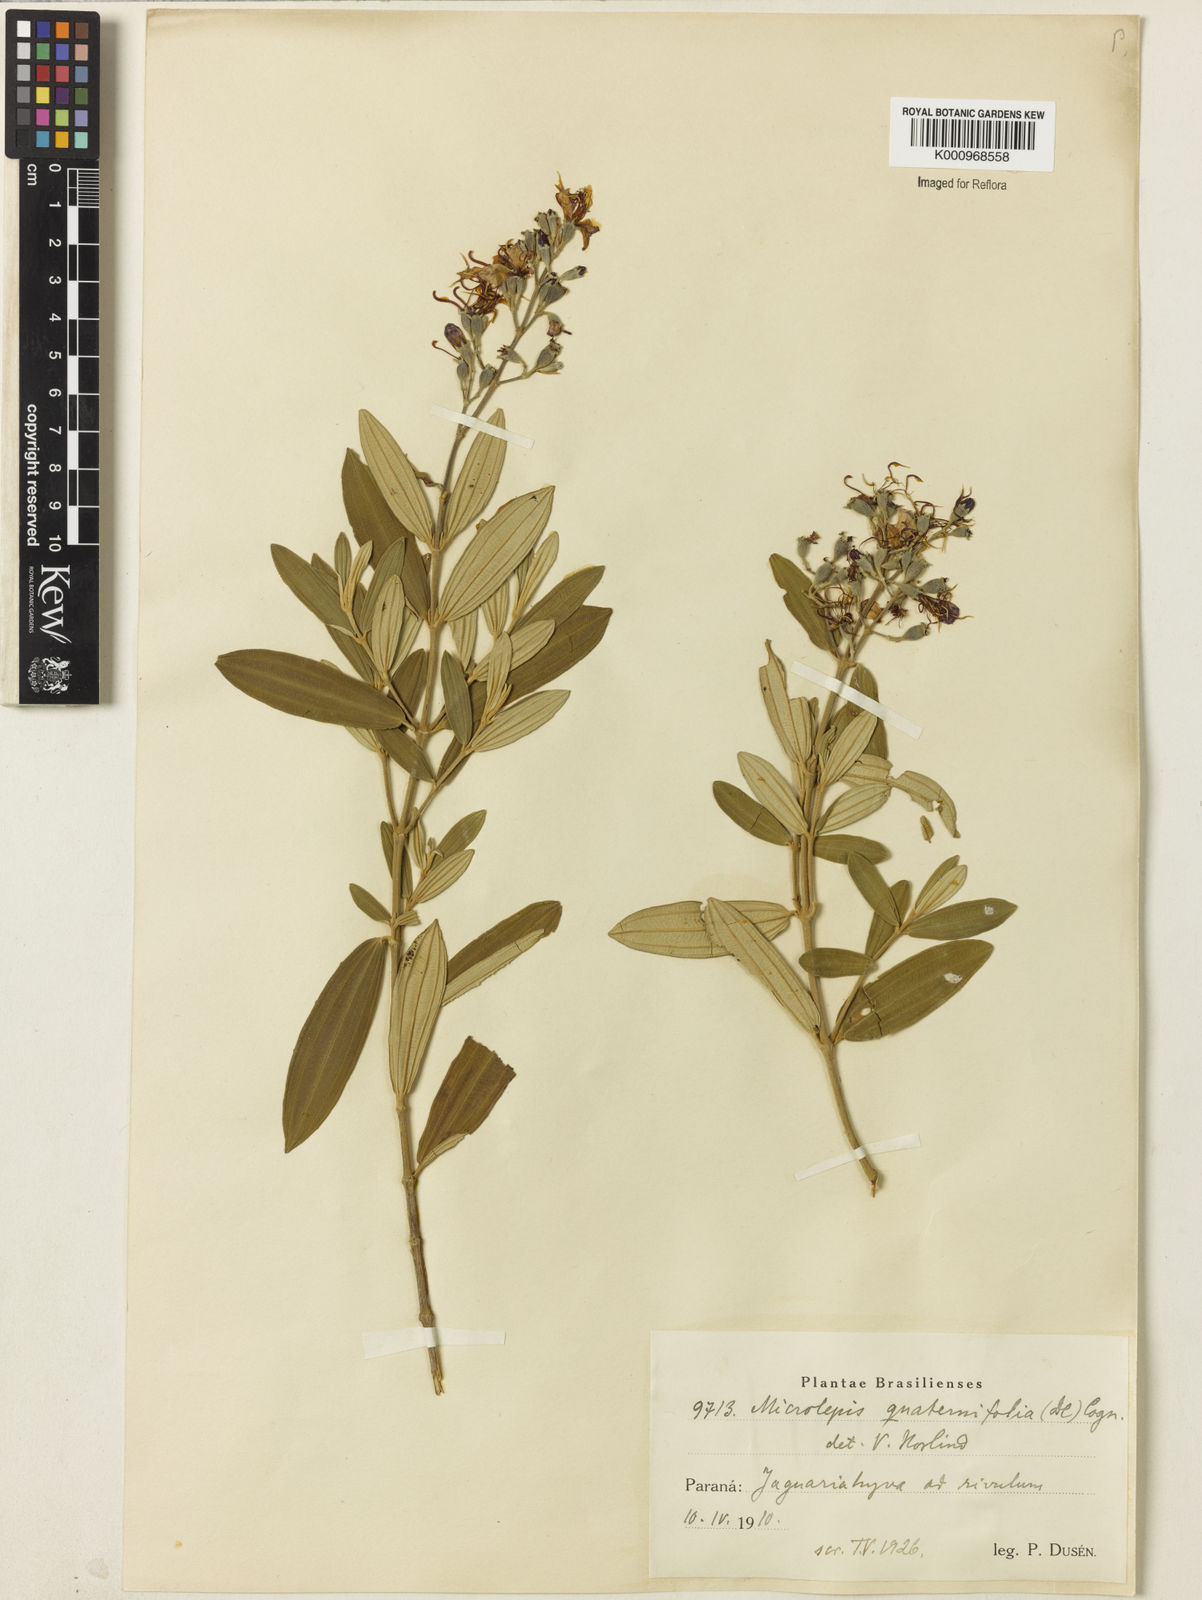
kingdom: Plantae
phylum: Tracheophyta
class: Magnoliopsida
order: Myrtales
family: Melastomataceae
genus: Pleroma
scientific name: Pleroma
